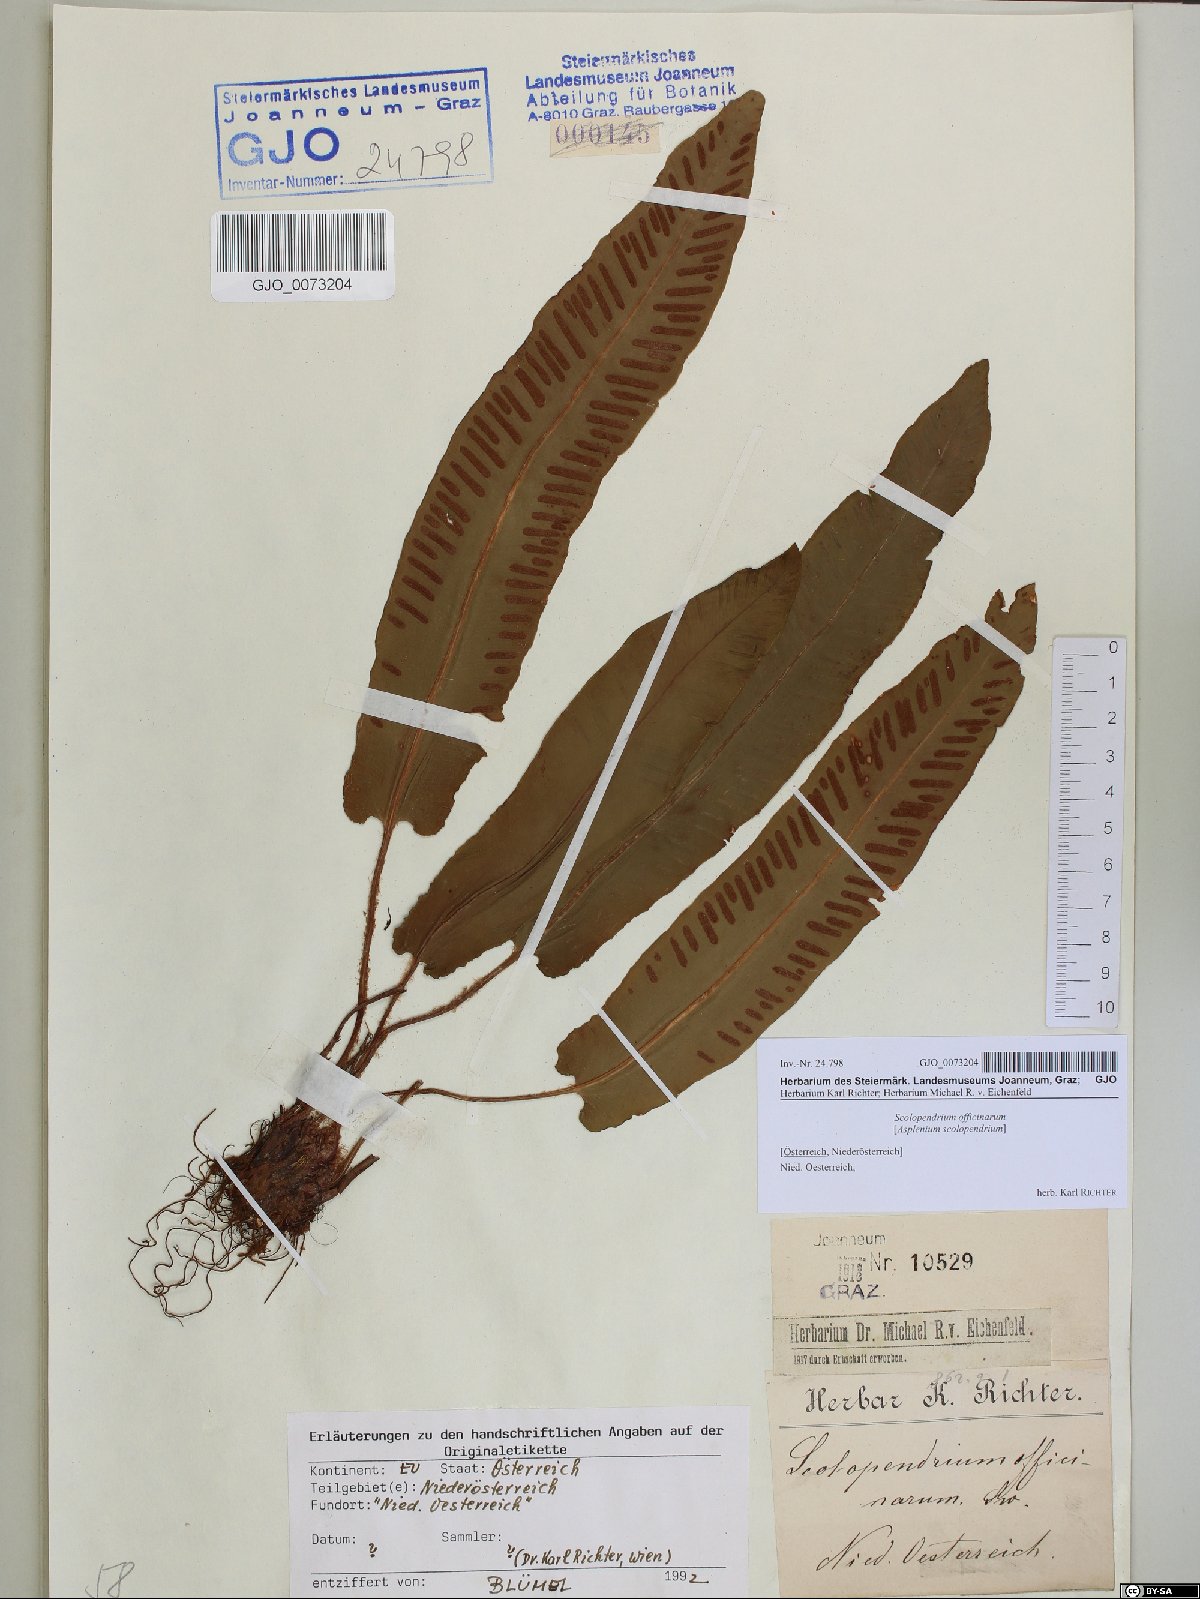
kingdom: Plantae
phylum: Tracheophyta
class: Polypodiopsida
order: Polypodiales
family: Aspleniaceae
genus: Asplenium
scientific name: Asplenium scolopendrium
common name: Hart's-tongue fern
